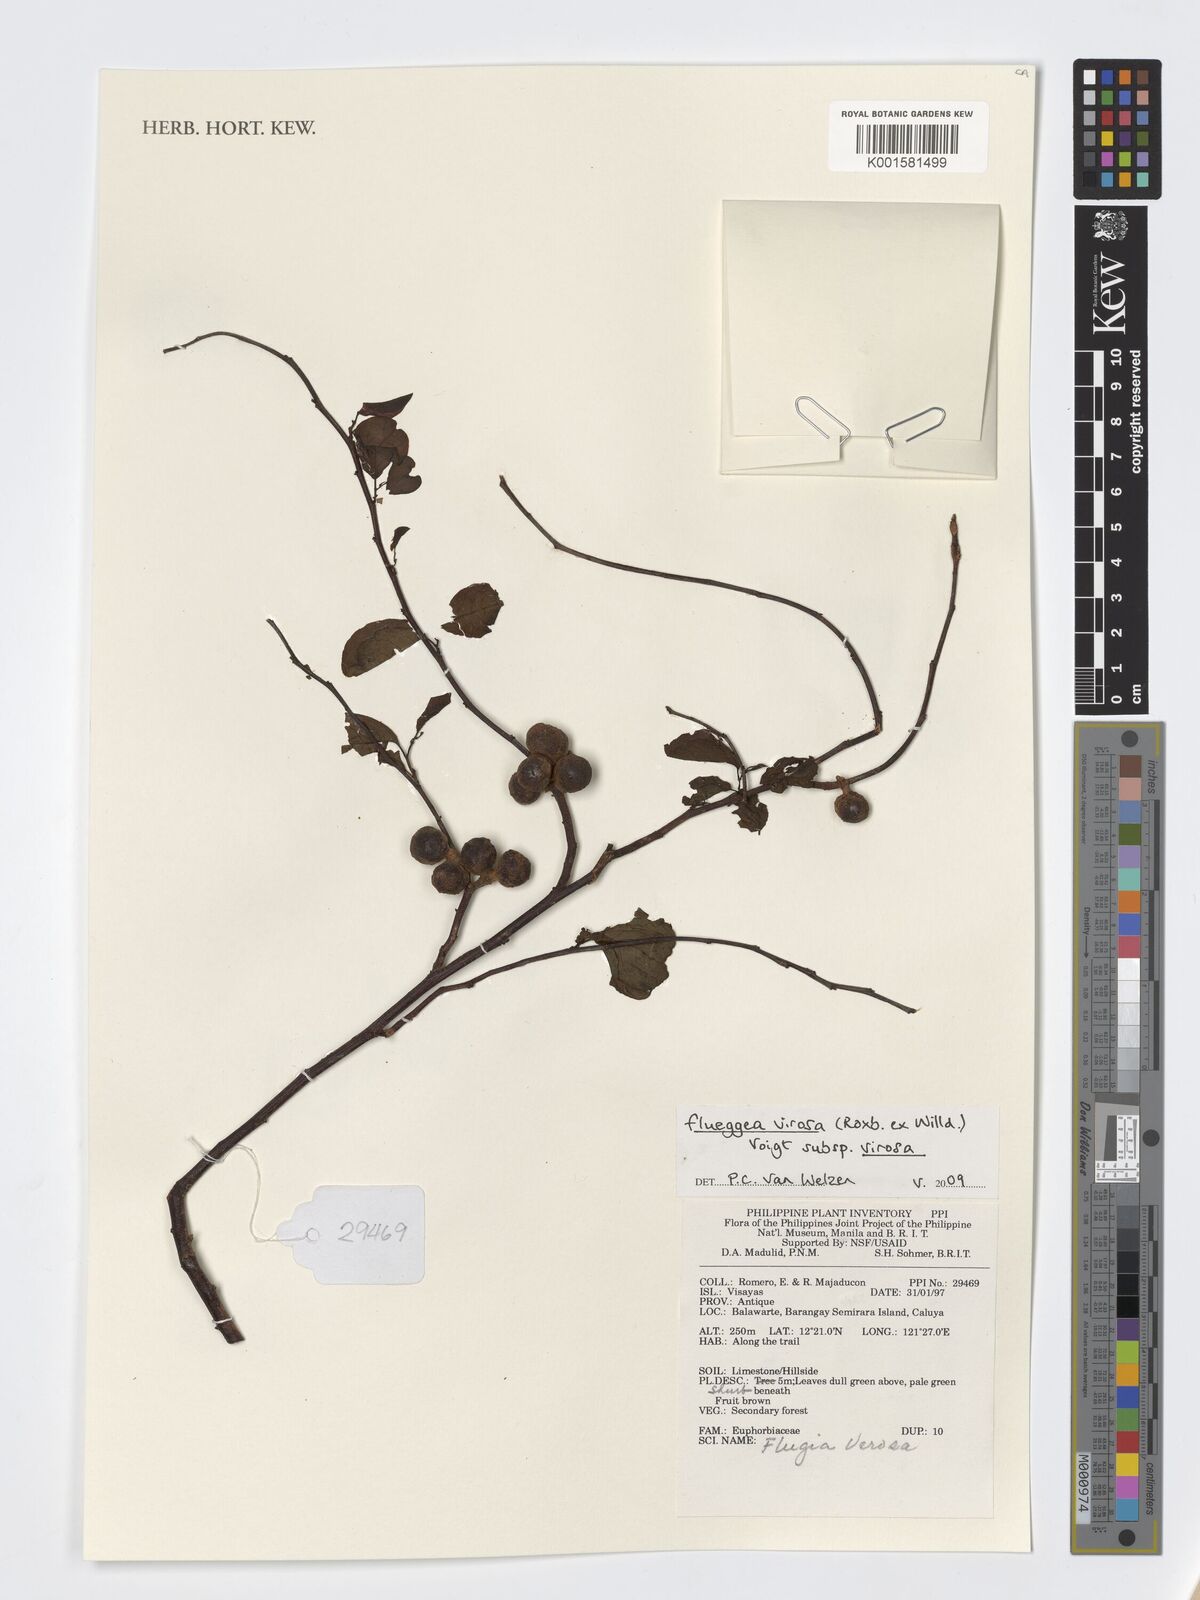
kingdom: Plantae
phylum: Tracheophyta
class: Magnoliopsida
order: Malpighiales
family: Phyllanthaceae
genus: Flueggea
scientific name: Flueggea virosa
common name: Common bushweed
